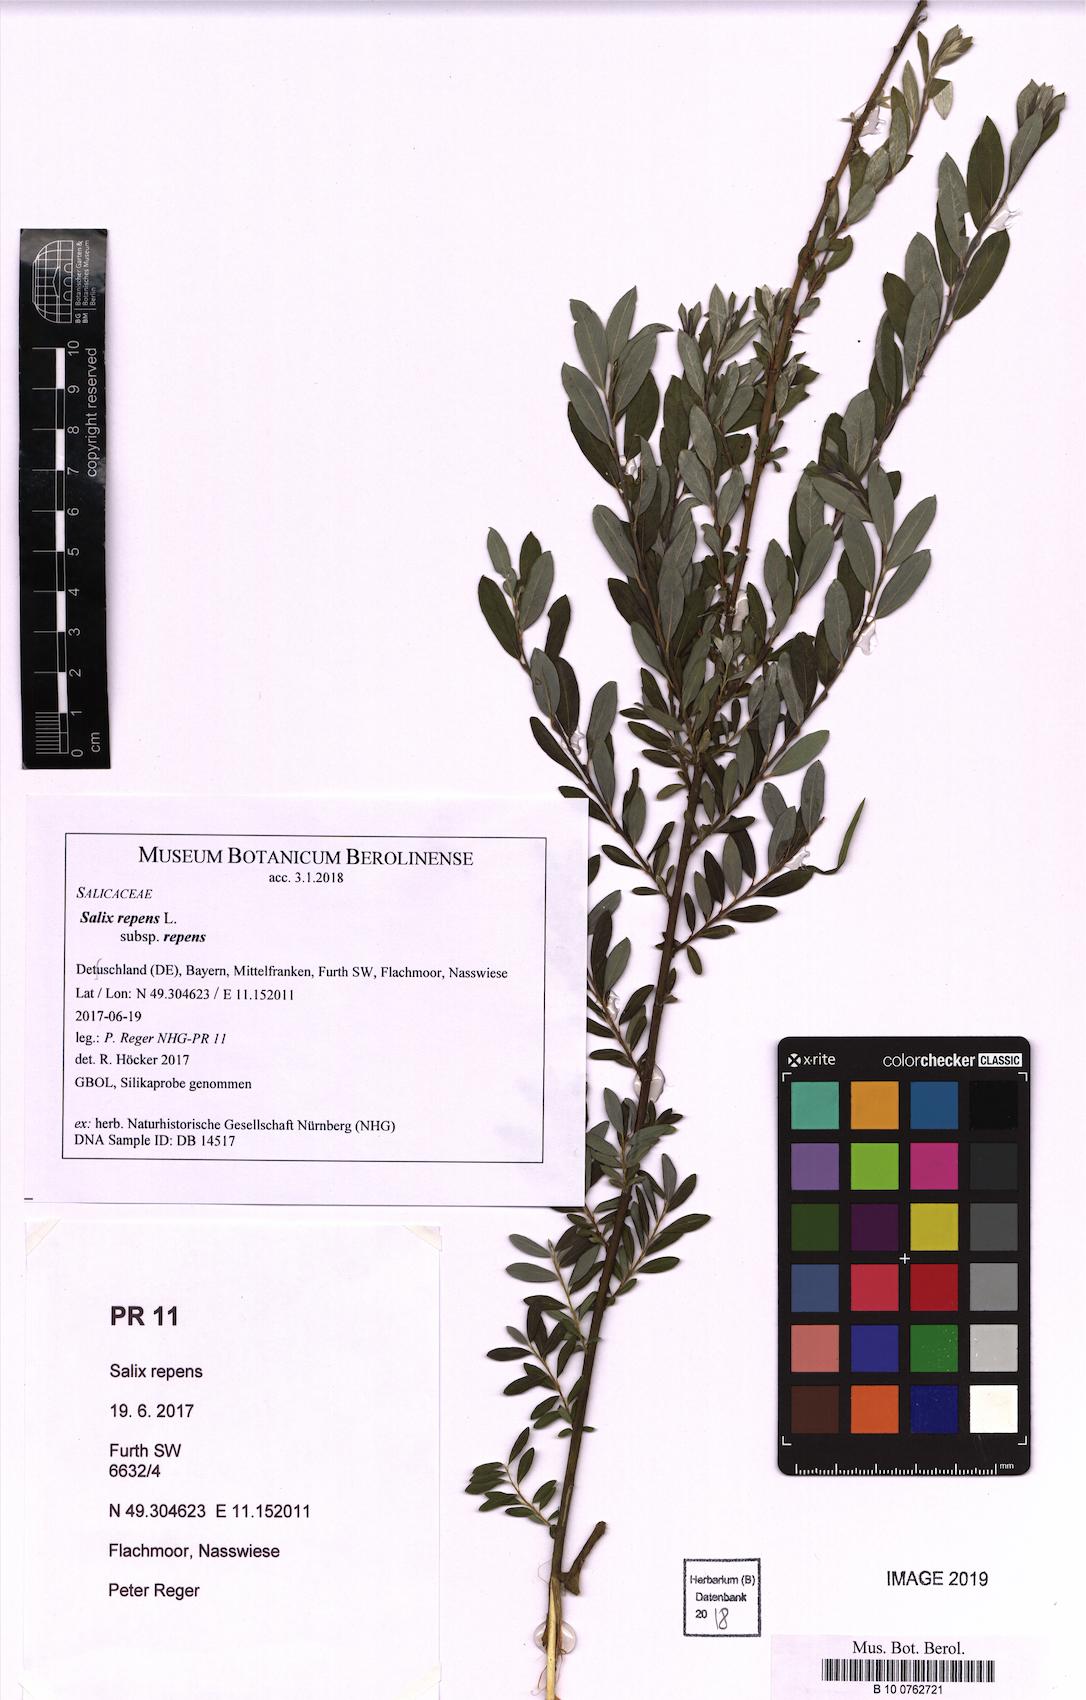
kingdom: Plantae
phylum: Tracheophyta
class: Magnoliopsida
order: Malpighiales
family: Salicaceae
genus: Salix
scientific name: Salix repens
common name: Creeping willow
